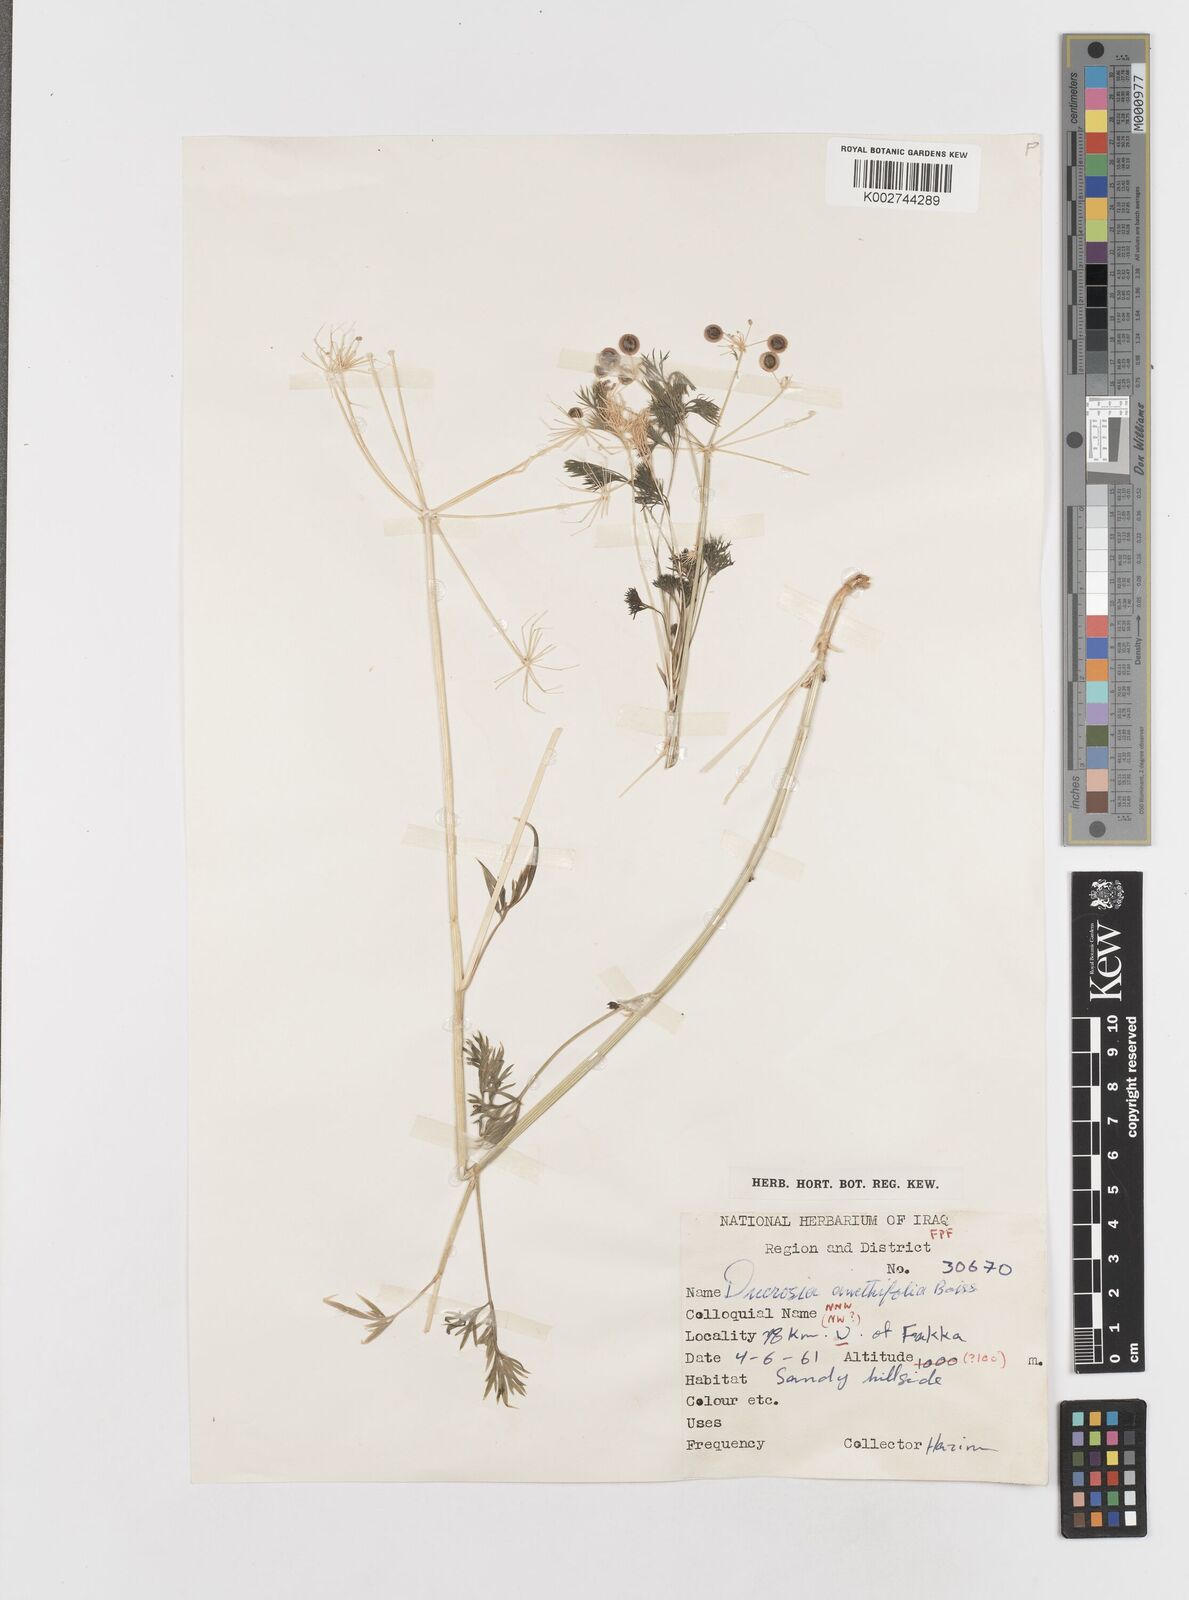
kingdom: Plantae
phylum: Tracheophyta
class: Magnoliopsida
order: Apiales
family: Apiaceae
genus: Ducrosia
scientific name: Ducrosia anethifolia
